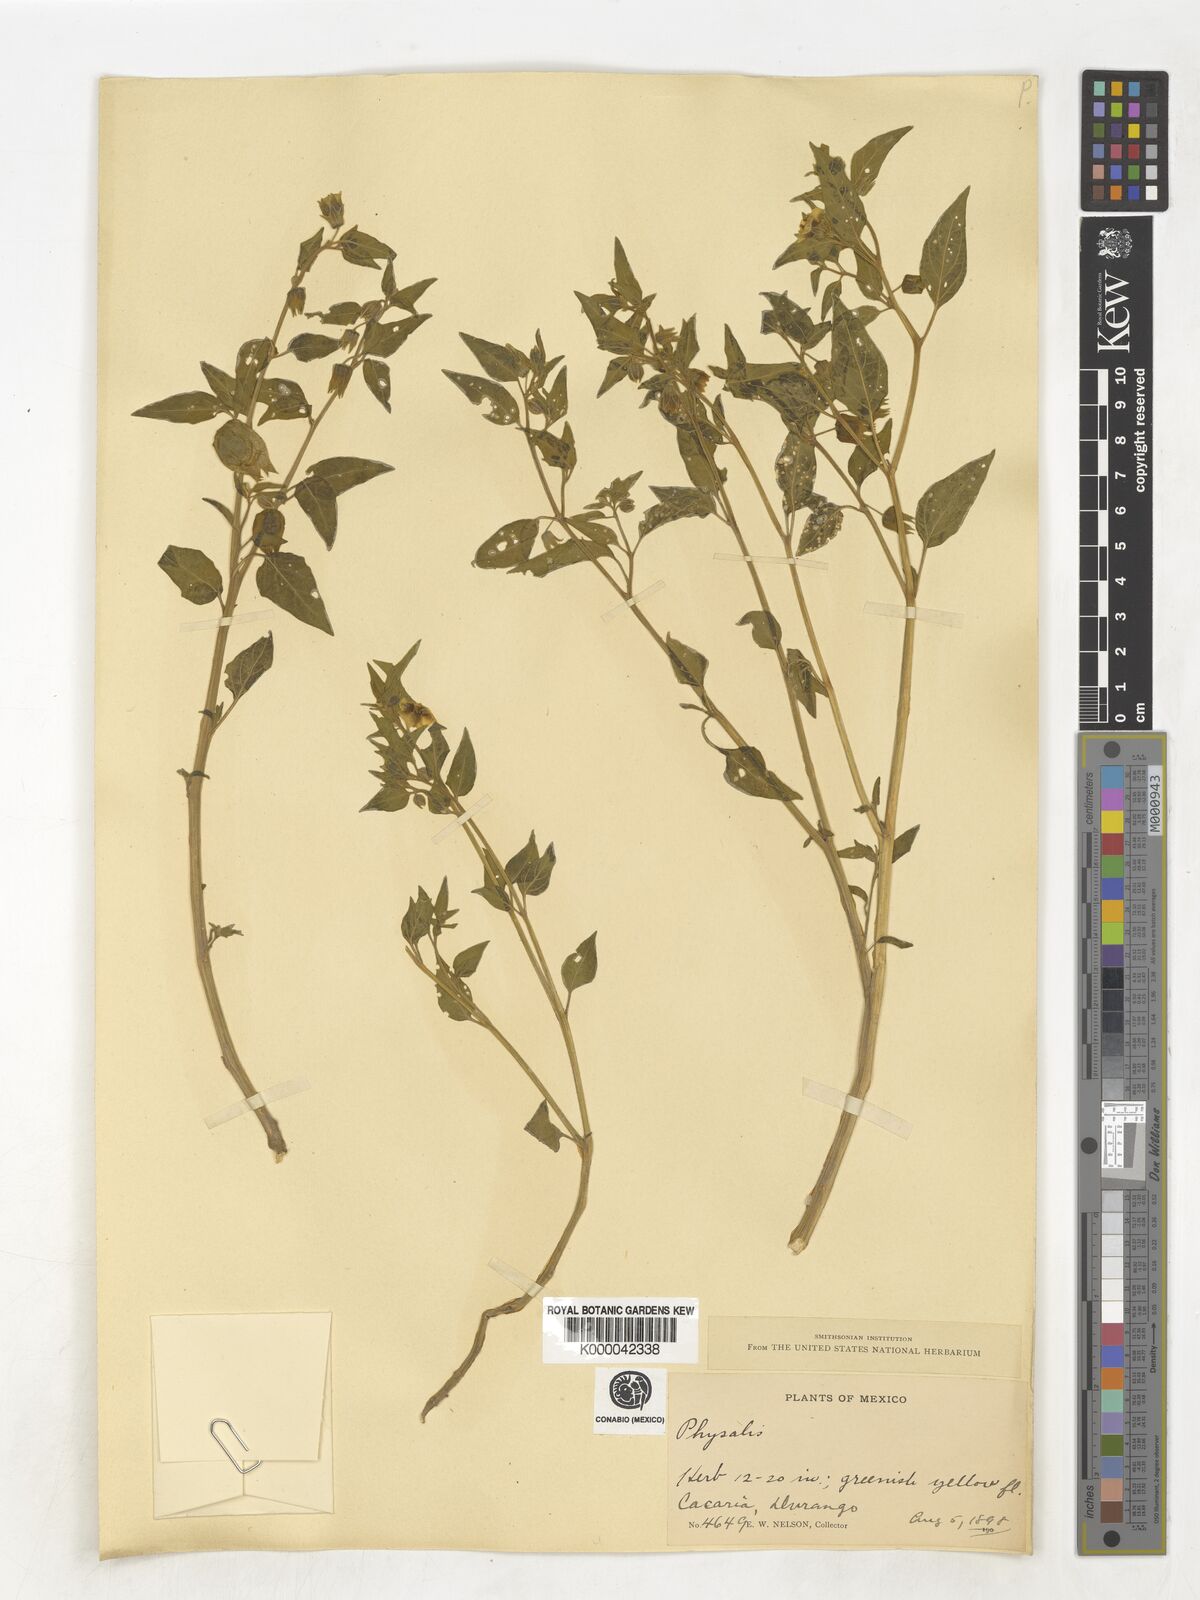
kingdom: Plantae
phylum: Tracheophyta
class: Magnoliopsida
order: Solanales
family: Solanaceae
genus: Physalis
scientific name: Physalis
